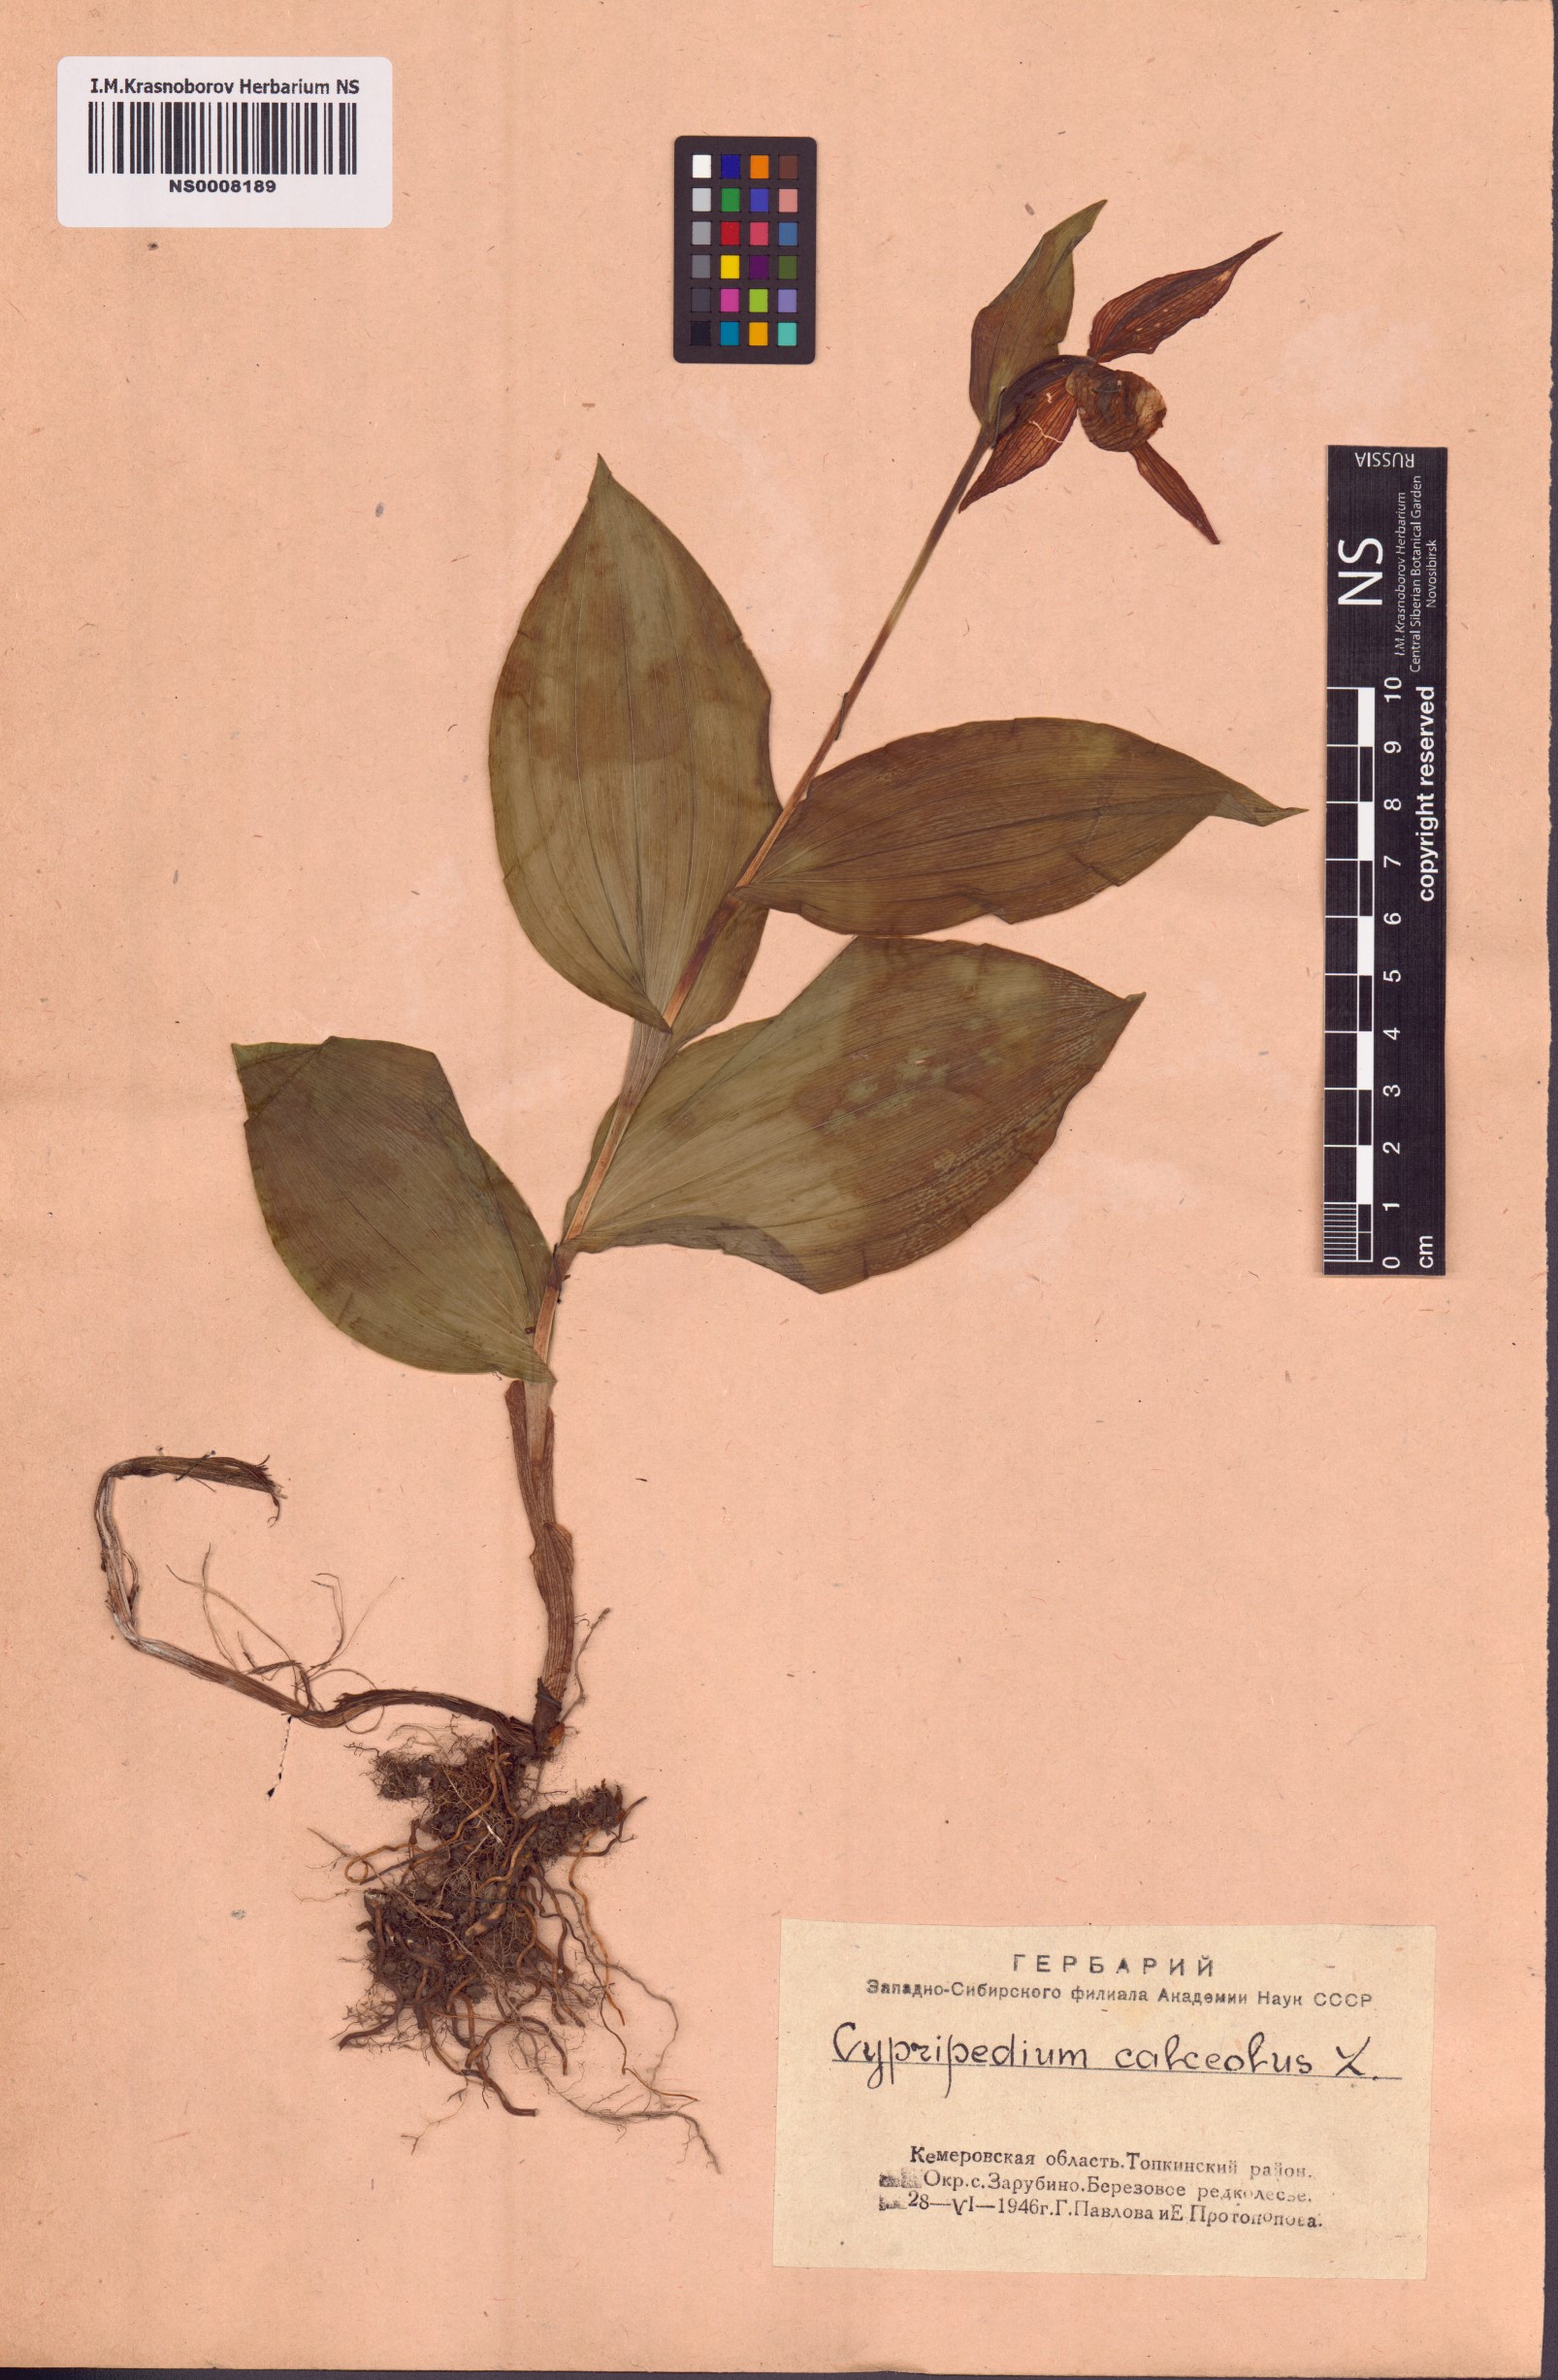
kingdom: Plantae
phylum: Tracheophyta
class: Liliopsida
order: Asparagales
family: Orchidaceae
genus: Cypripedium
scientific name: Cypripedium calceolus
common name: Lady's-slipper
